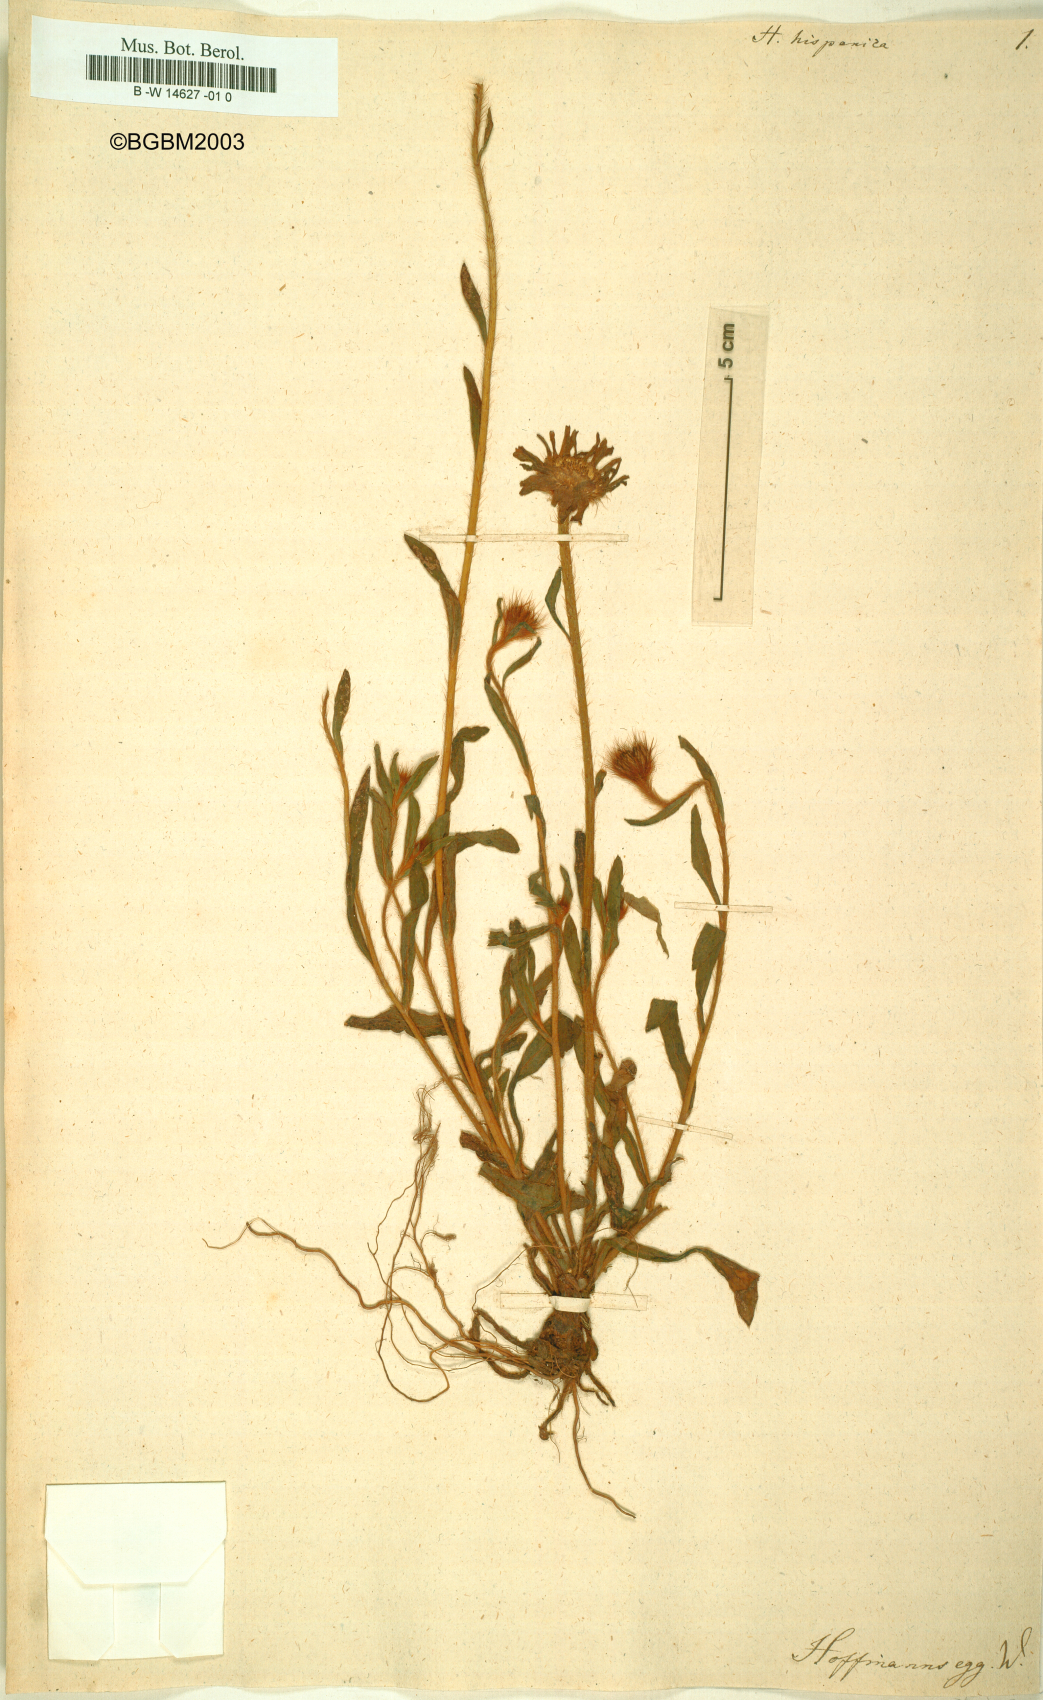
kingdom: Plantae
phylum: Tracheophyta
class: Magnoliopsida
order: Asterales
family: Asteraceae
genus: Hispidella
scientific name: Hispidella hispanica
